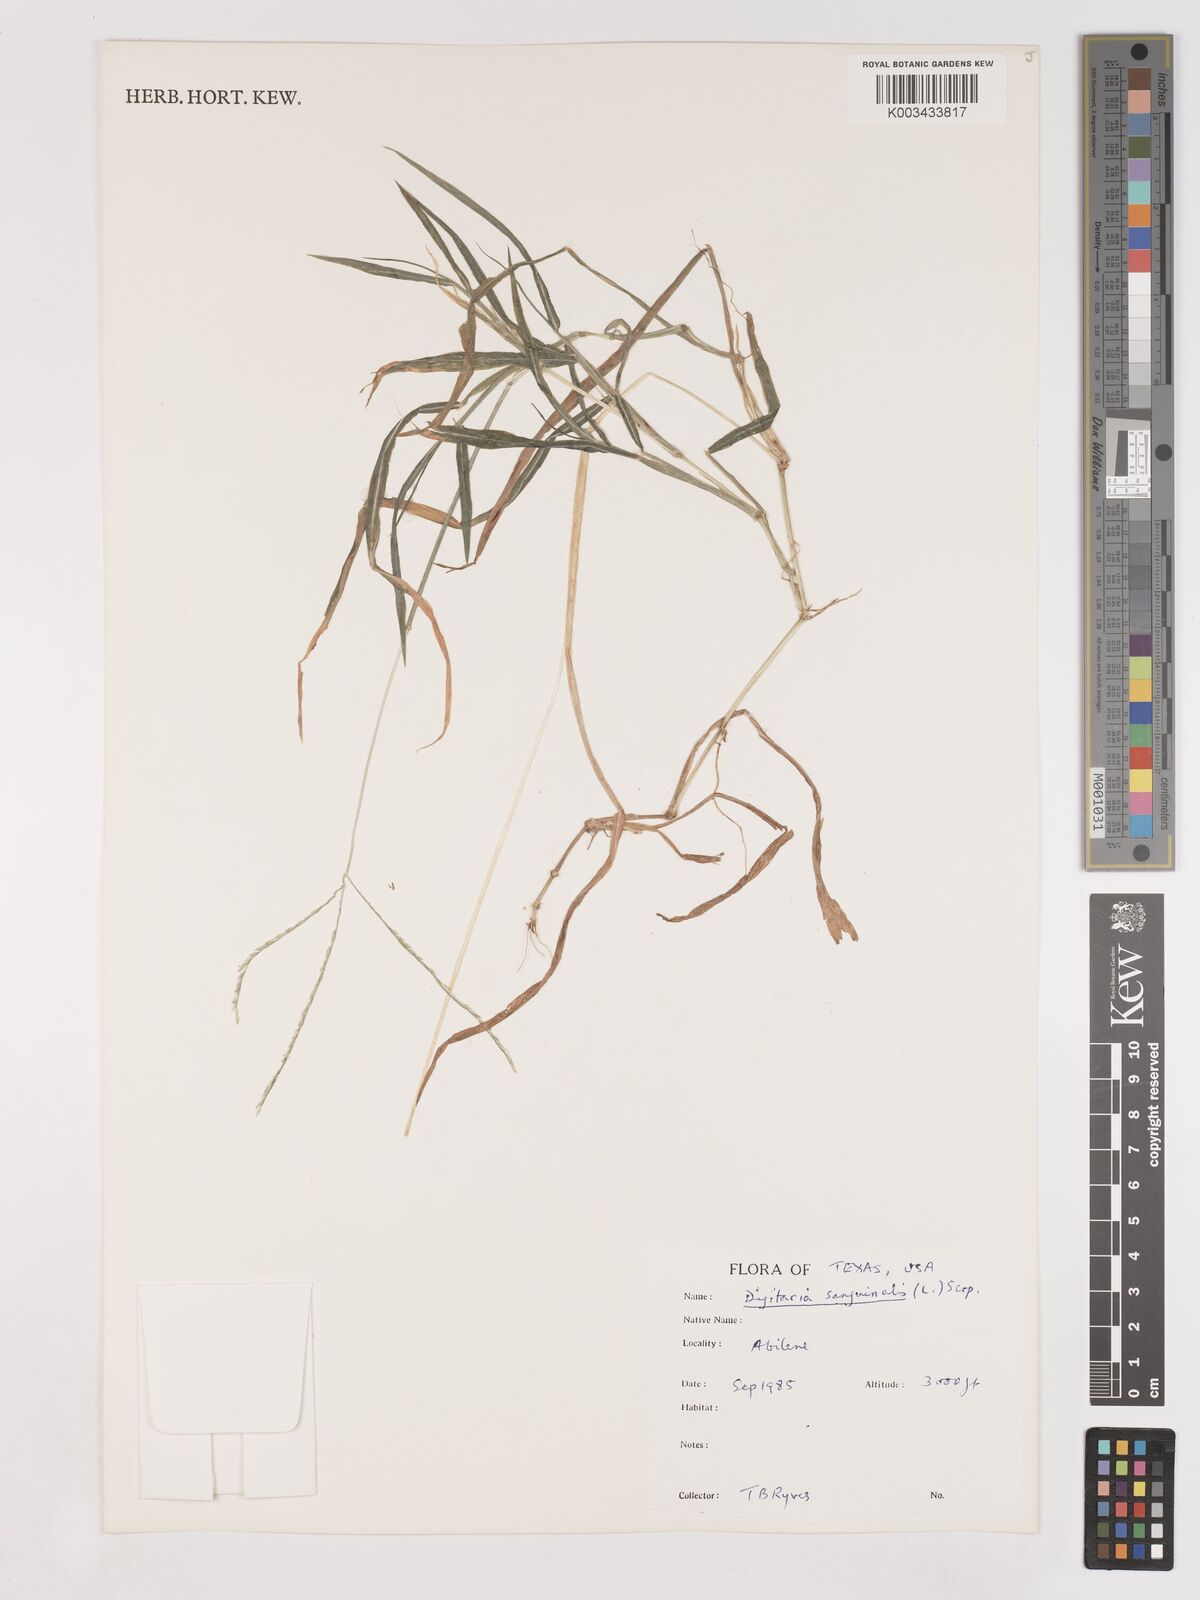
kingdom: Plantae
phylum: Tracheophyta
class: Liliopsida
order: Poales
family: Poaceae
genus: Digitaria
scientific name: Digitaria ciliaris
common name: Tropical finger-grass
